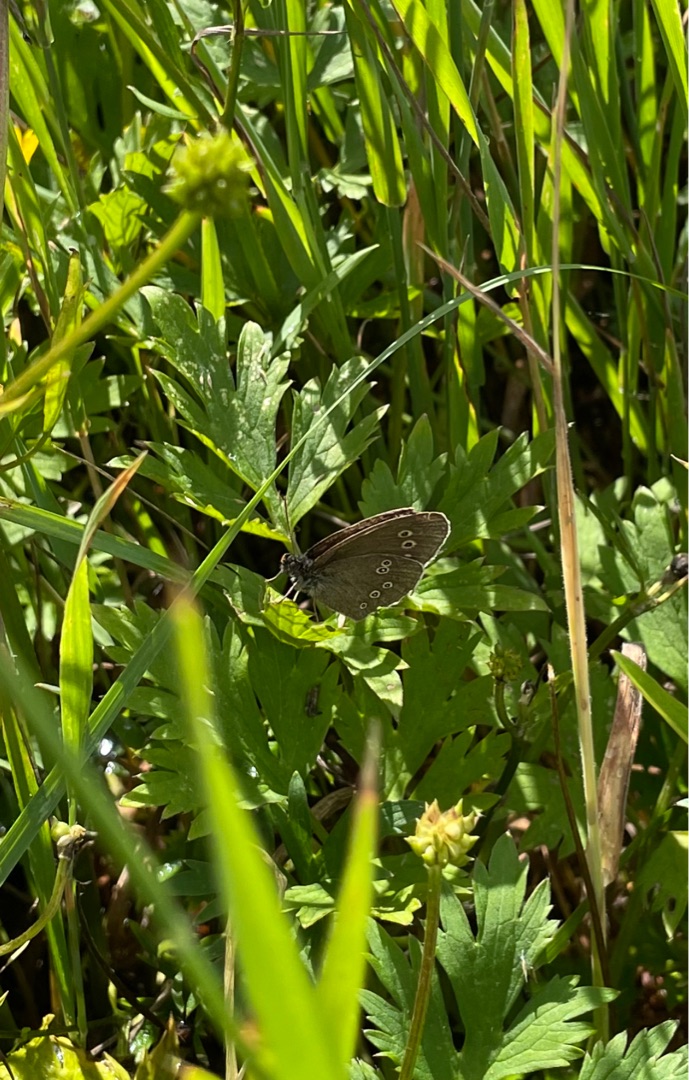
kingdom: Animalia
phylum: Arthropoda
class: Insecta
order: Lepidoptera
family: Nymphalidae
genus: Aphantopus
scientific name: Aphantopus hyperantus
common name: Engrandøje
